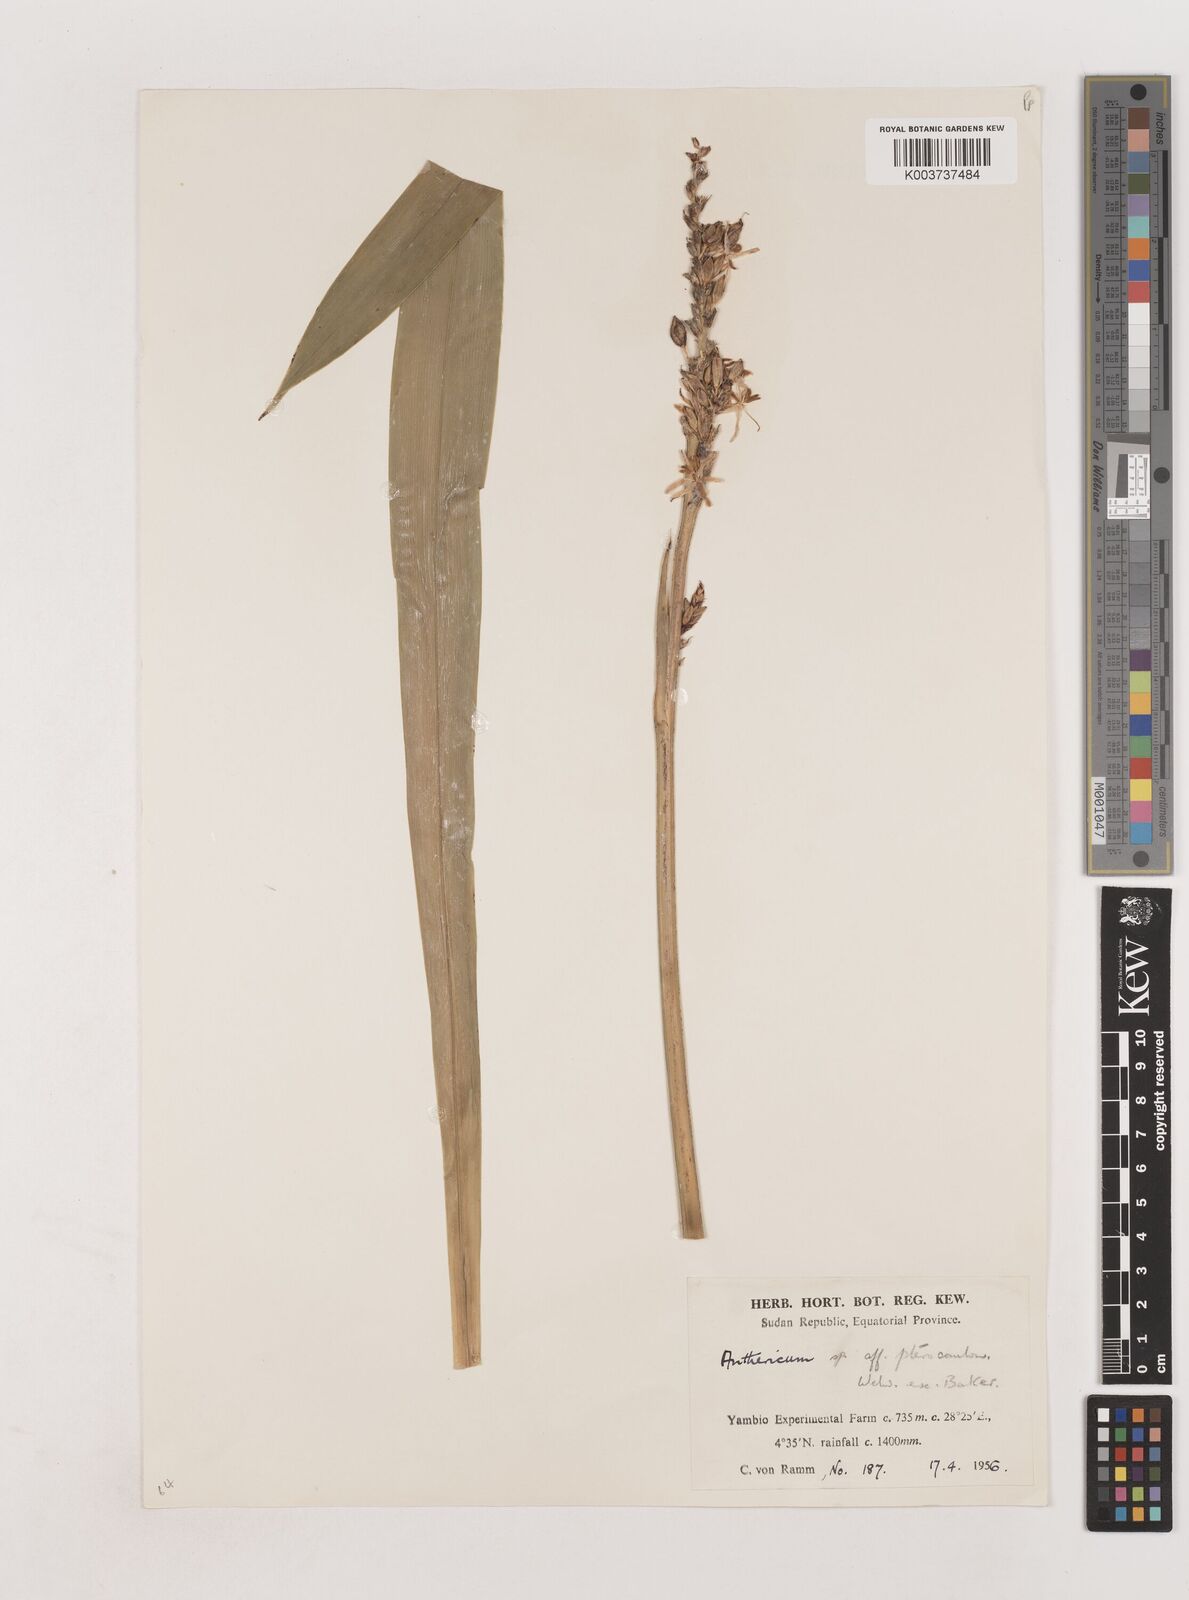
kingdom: Plantae
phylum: Tracheophyta
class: Liliopsida
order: Asparagales
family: Asparagaceae
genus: Chlorophytum
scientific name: Chlorophytum cameronii
